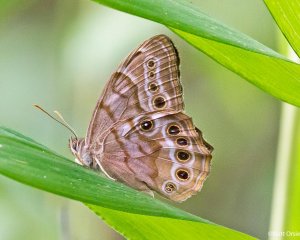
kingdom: Animalia
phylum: Arthropoda
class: Insecta
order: Lepidoptera
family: Nymphalidae
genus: Enodia
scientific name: Enodia portlandia
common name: Southern Pearly Eye
